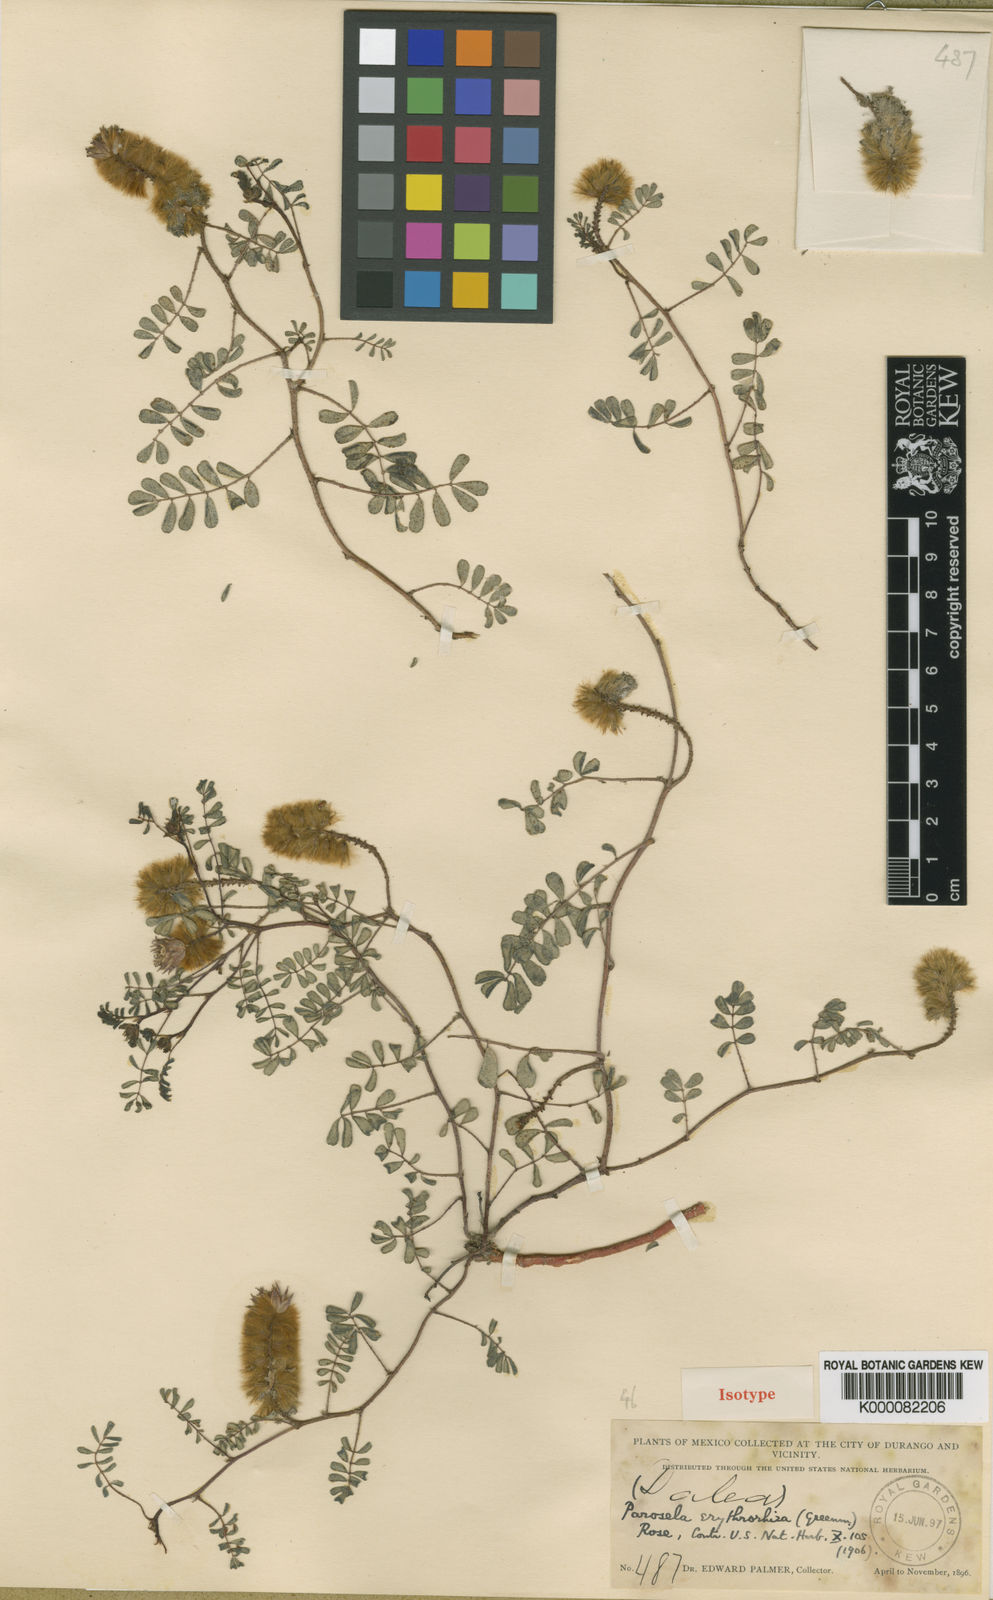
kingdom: Plantae
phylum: Tracheophyta
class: Magnoliopsida
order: Fabales
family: Fabaceae
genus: Dalea
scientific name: Dalea erythrorhiza
